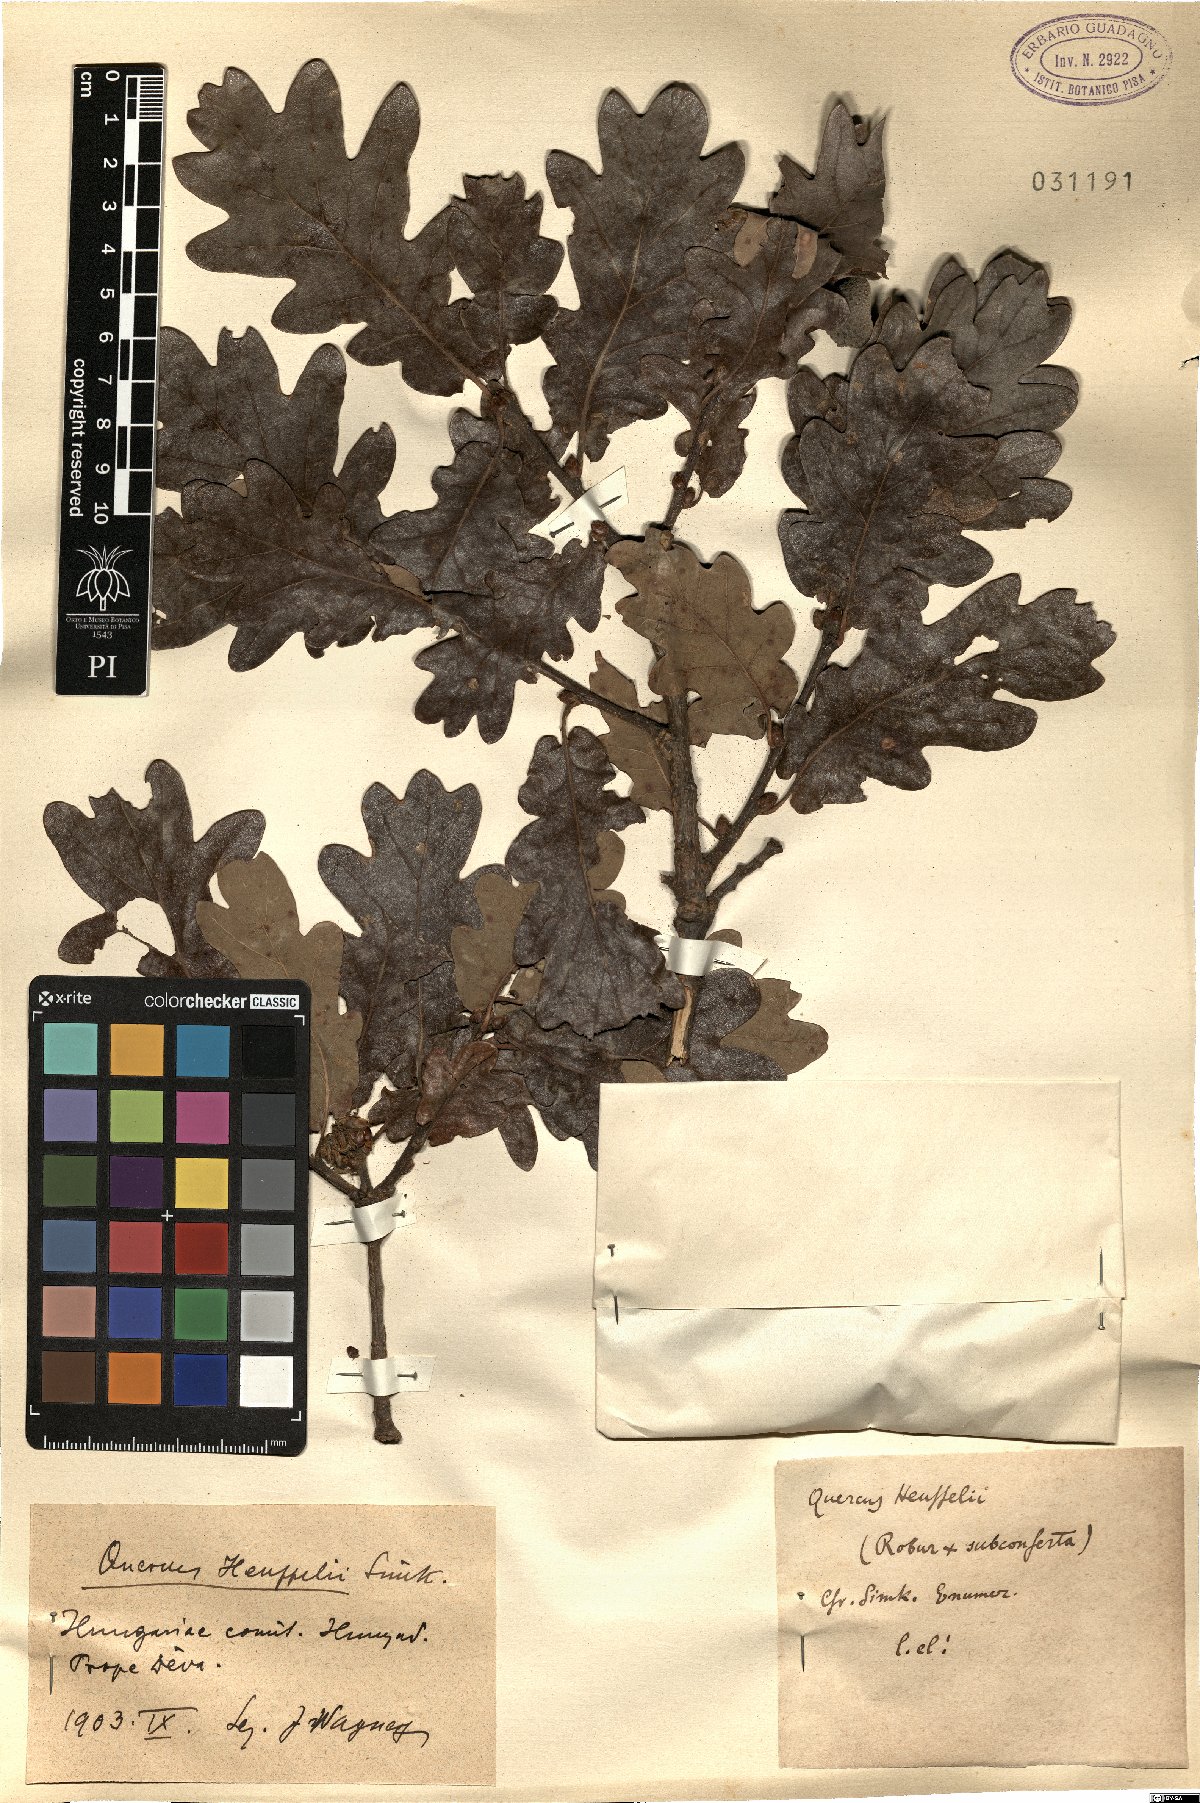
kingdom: Plantae
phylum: Tracheophyta
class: Magnoliopsida
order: Fagales
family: Fagaceae
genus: Quercus
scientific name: Quercus haynaldiana
